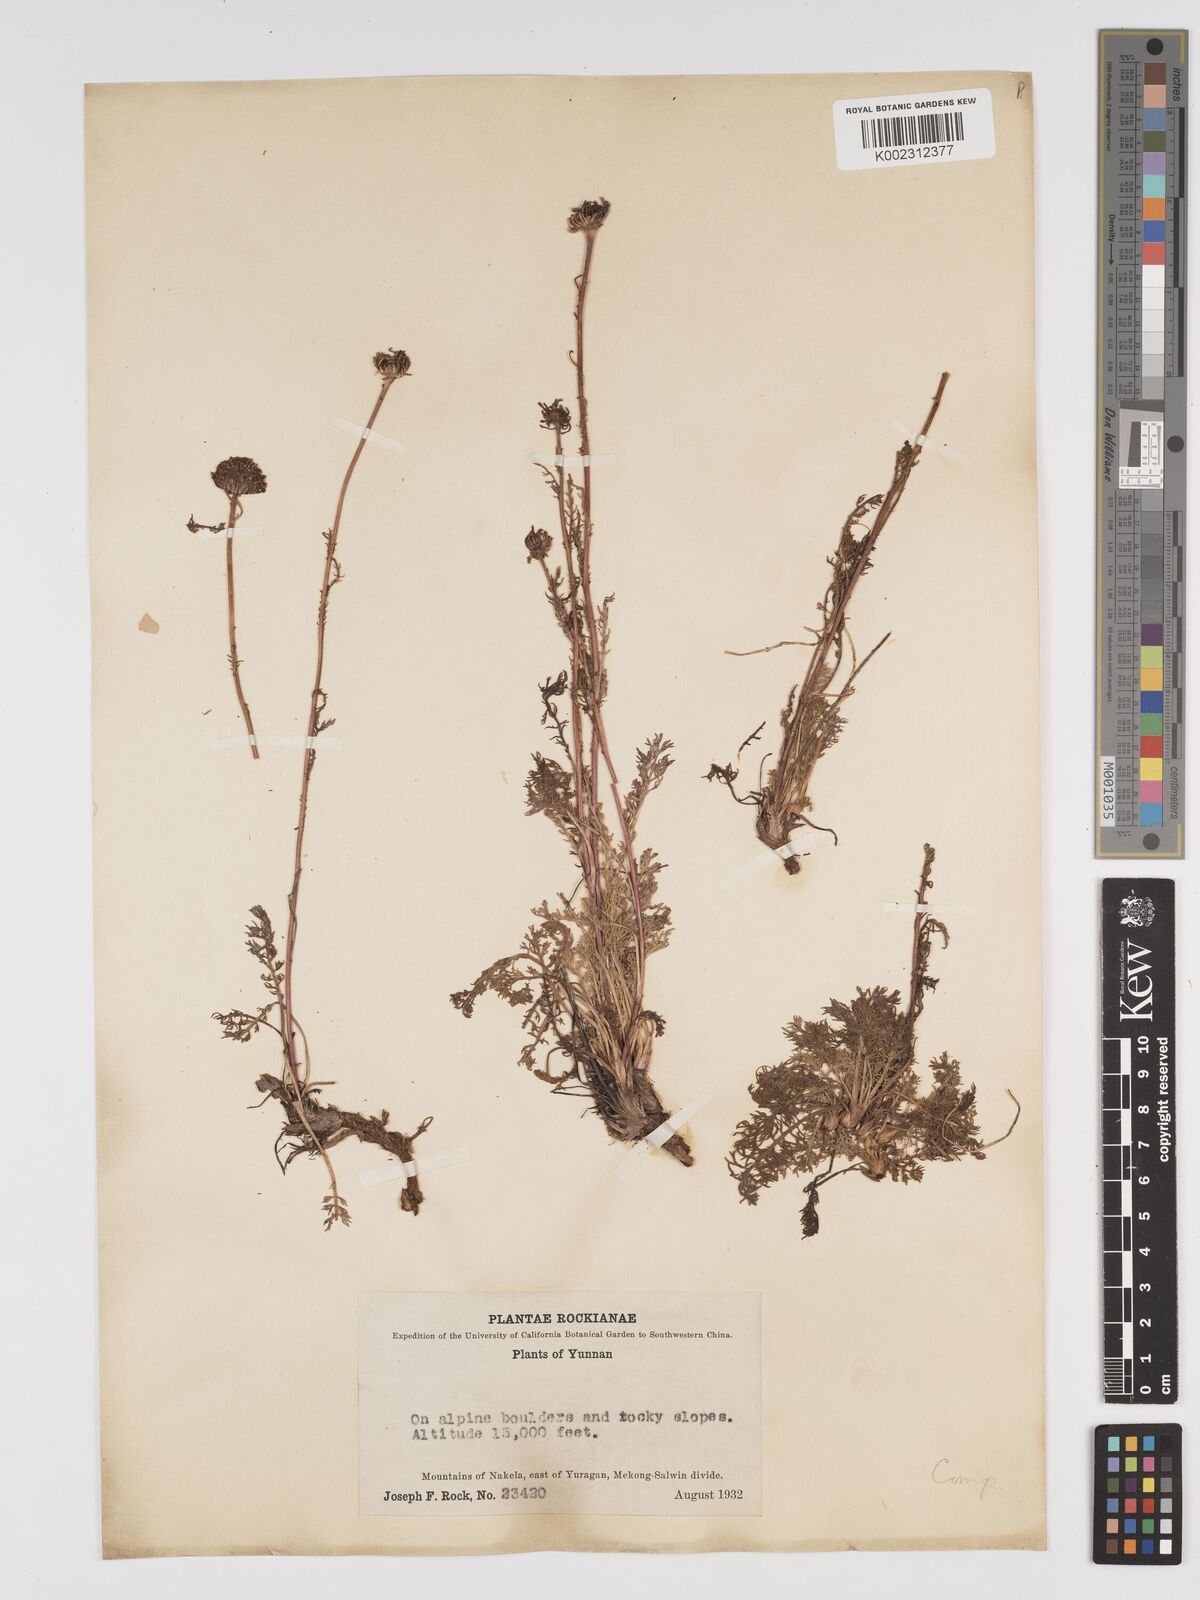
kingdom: Plantae
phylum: Tracheophyta
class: Magnoliopsida
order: Asterales
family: Asteraceae
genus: Tanacetum
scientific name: Tanacetum tatsienense
